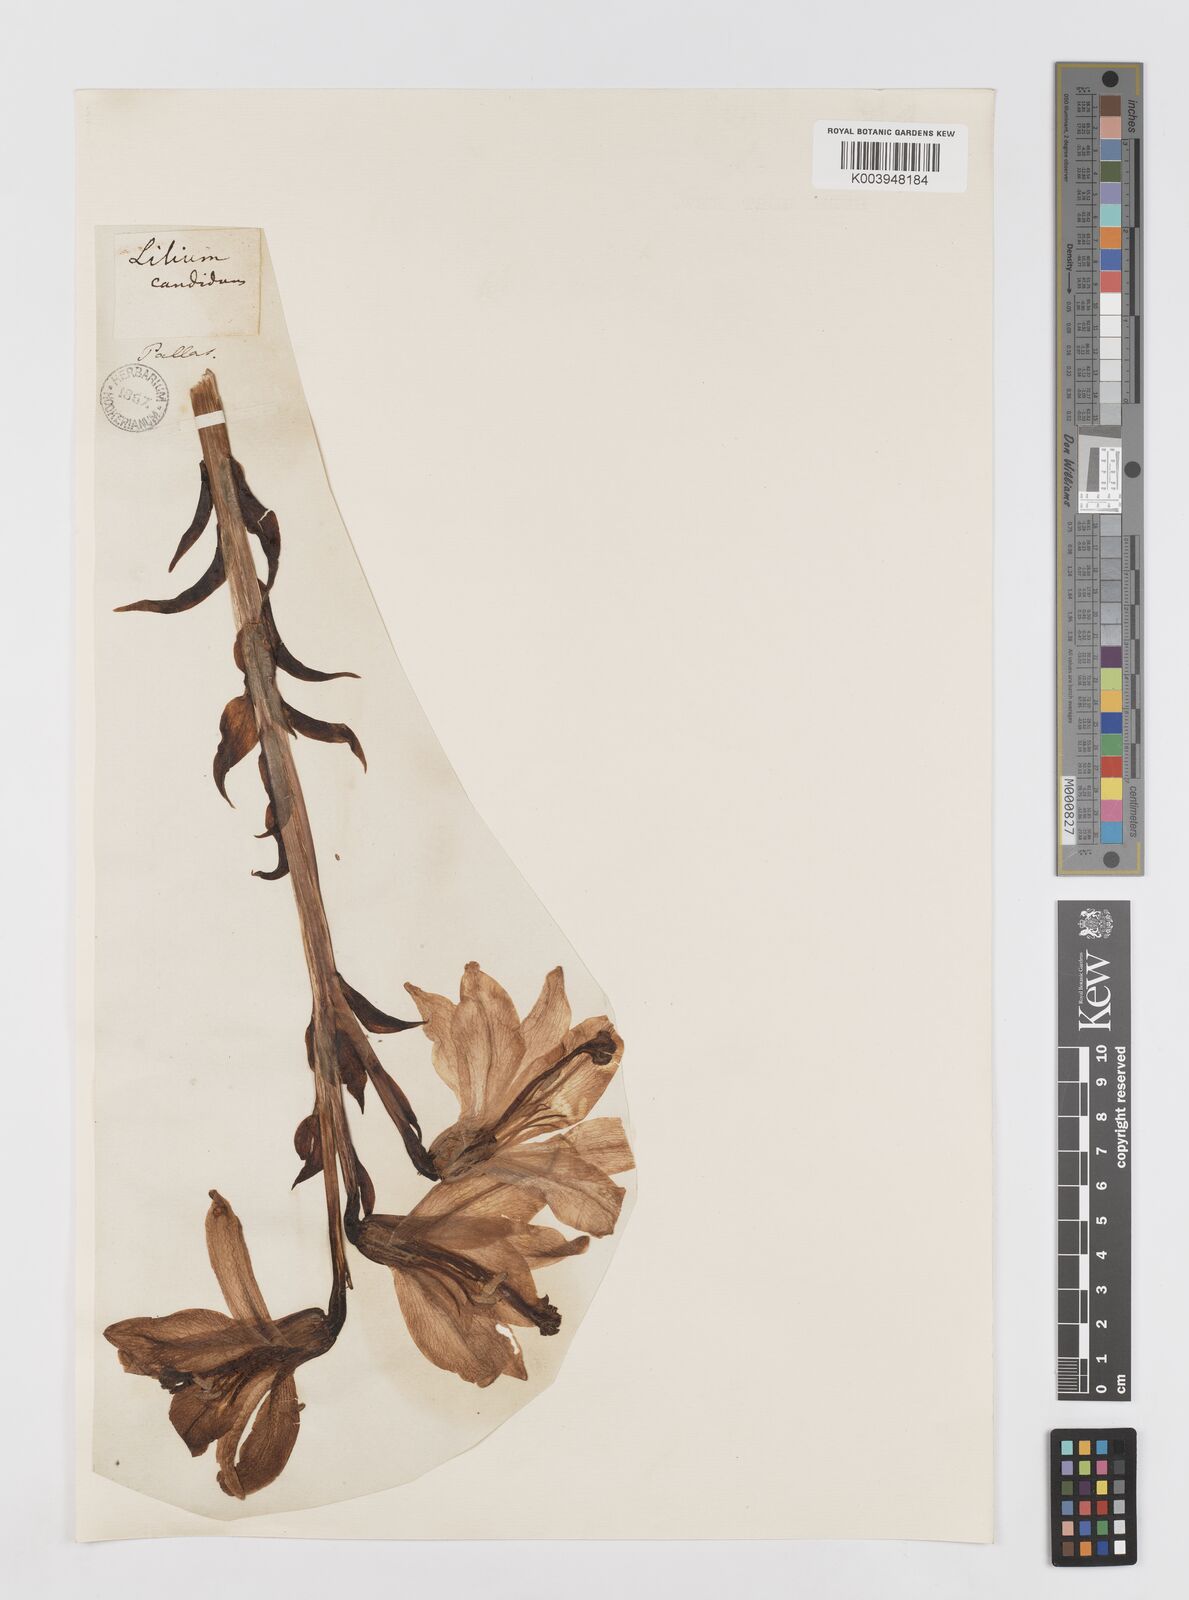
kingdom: Plantae
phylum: Tracheophyta
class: Liliopsida
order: Liliales
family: Liliaceae
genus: Lilium
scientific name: Lilium candidum
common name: Madonna lily
